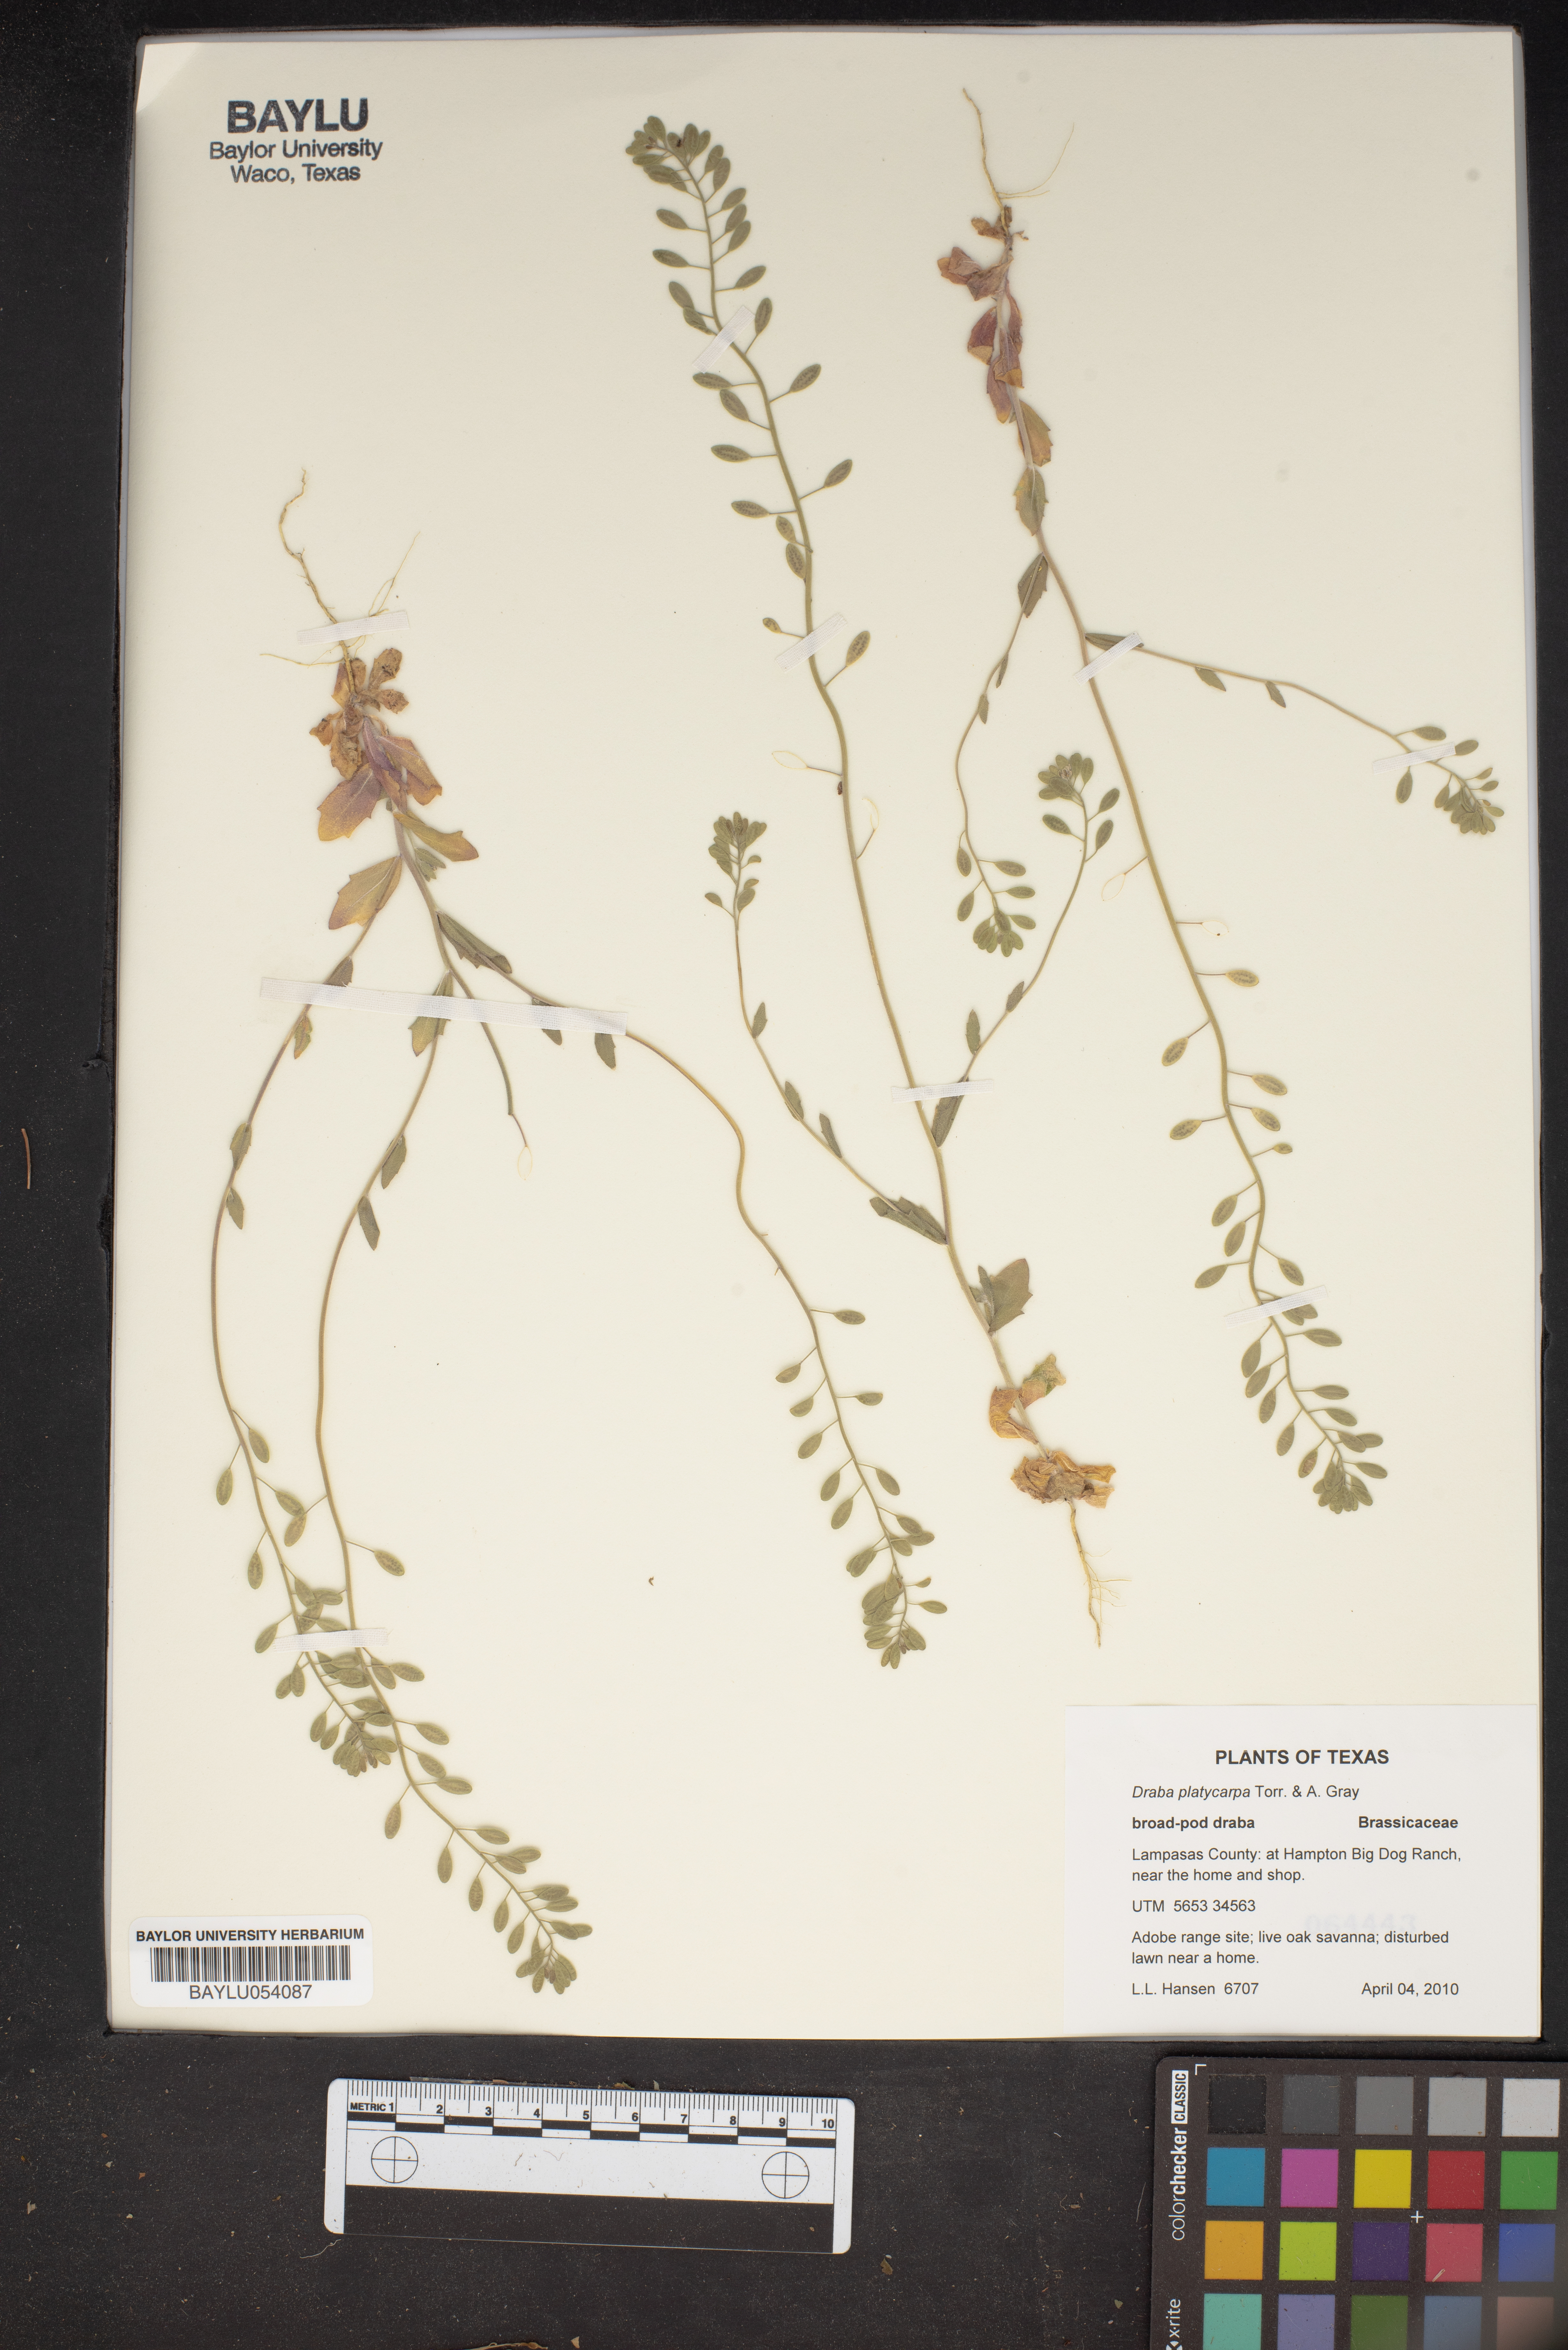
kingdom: Plantae
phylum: Tracheophyta
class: Magnoliopsida
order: Brassicales
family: Brassicaceae
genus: Tomostima
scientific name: Tomostima platycarpa
